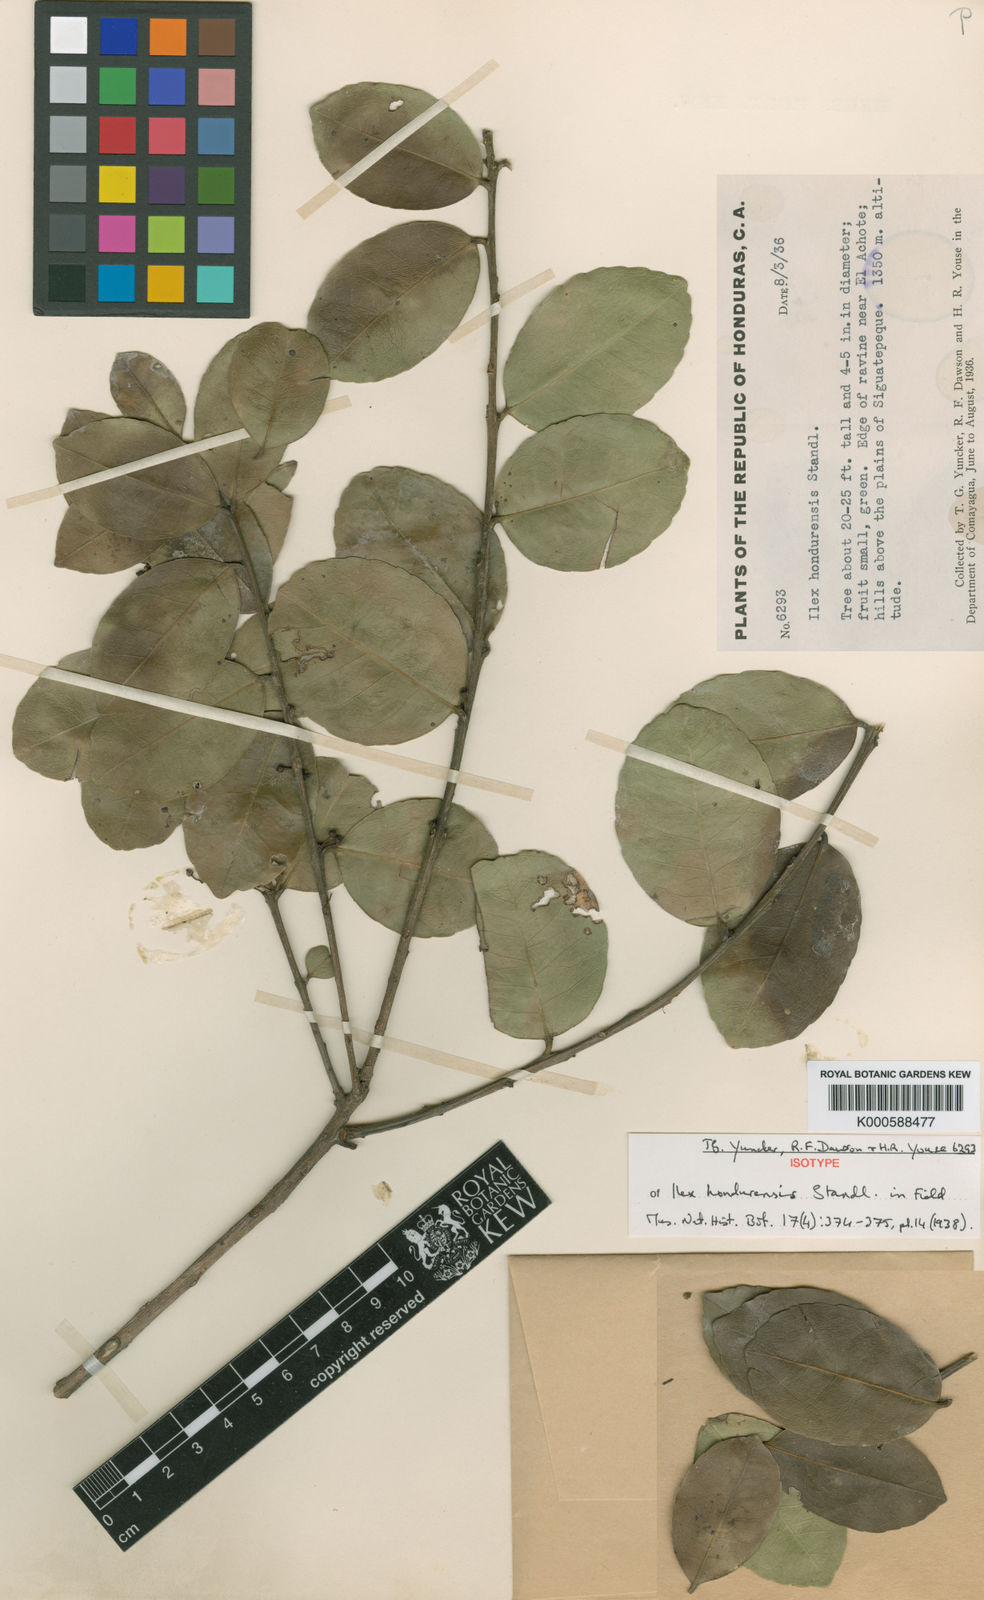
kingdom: Plantae
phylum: Tracheophyta
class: Magnoliopsida
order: Aquifoliales
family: Aquifoliaceae
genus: Ilex
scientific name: Ilex hondurensis
